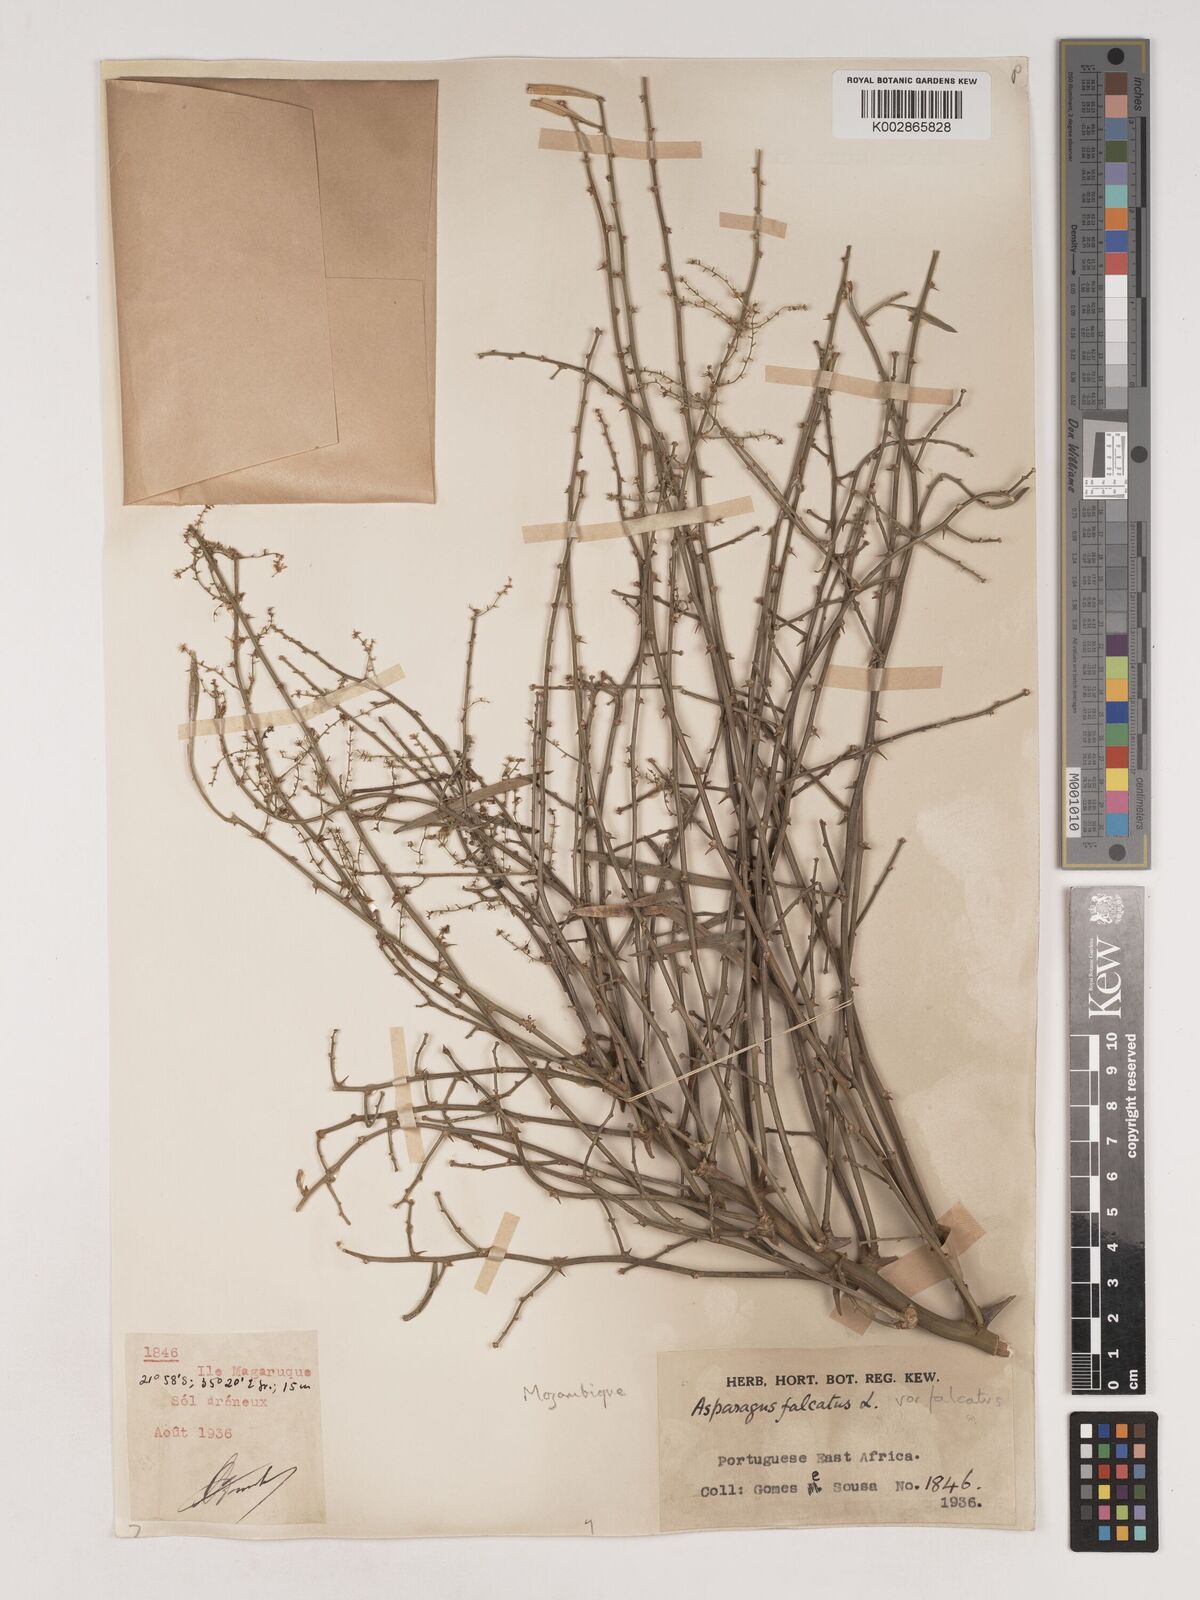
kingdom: Plantae
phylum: Tracheophyta
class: Liliopsida
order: Asparagales
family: Asparagaceae
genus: Asparagus
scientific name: Asparagus falcatus
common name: Asparagus
